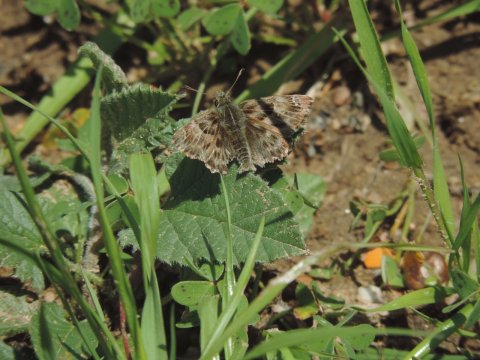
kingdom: Animalia
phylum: Arthropoda
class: Insecta
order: Lepidoptera
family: Hesperiidae
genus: Carcharodus
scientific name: Carcharodus alceae
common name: Mallow Skipper
